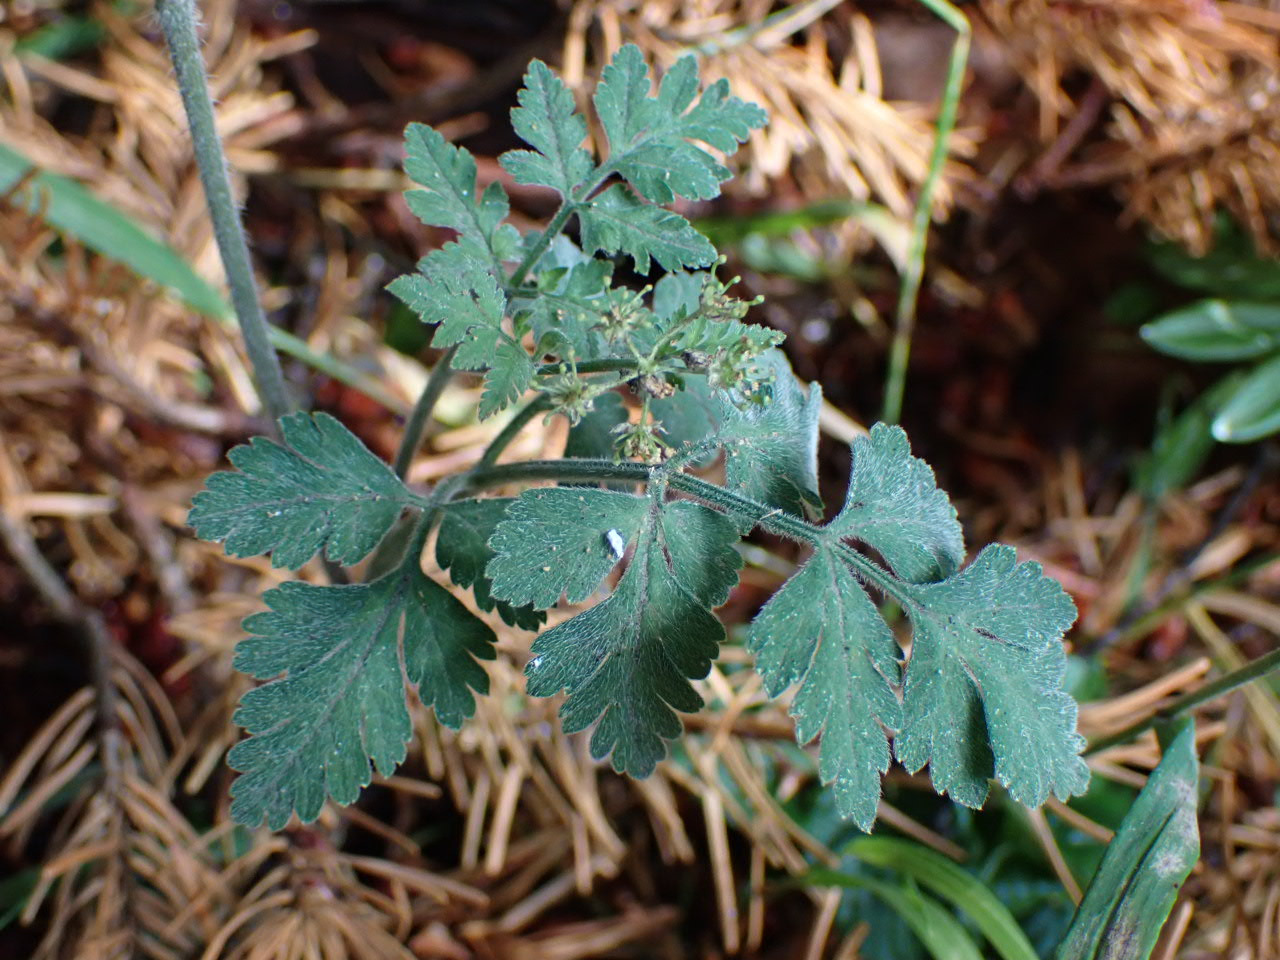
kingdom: Plantae
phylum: Tracheophyta
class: Magnoliopsida
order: Apiales
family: Apiaceae
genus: Chaerophyllum
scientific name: Chaerophyllum temulum
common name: Almindelig hulsvøb
